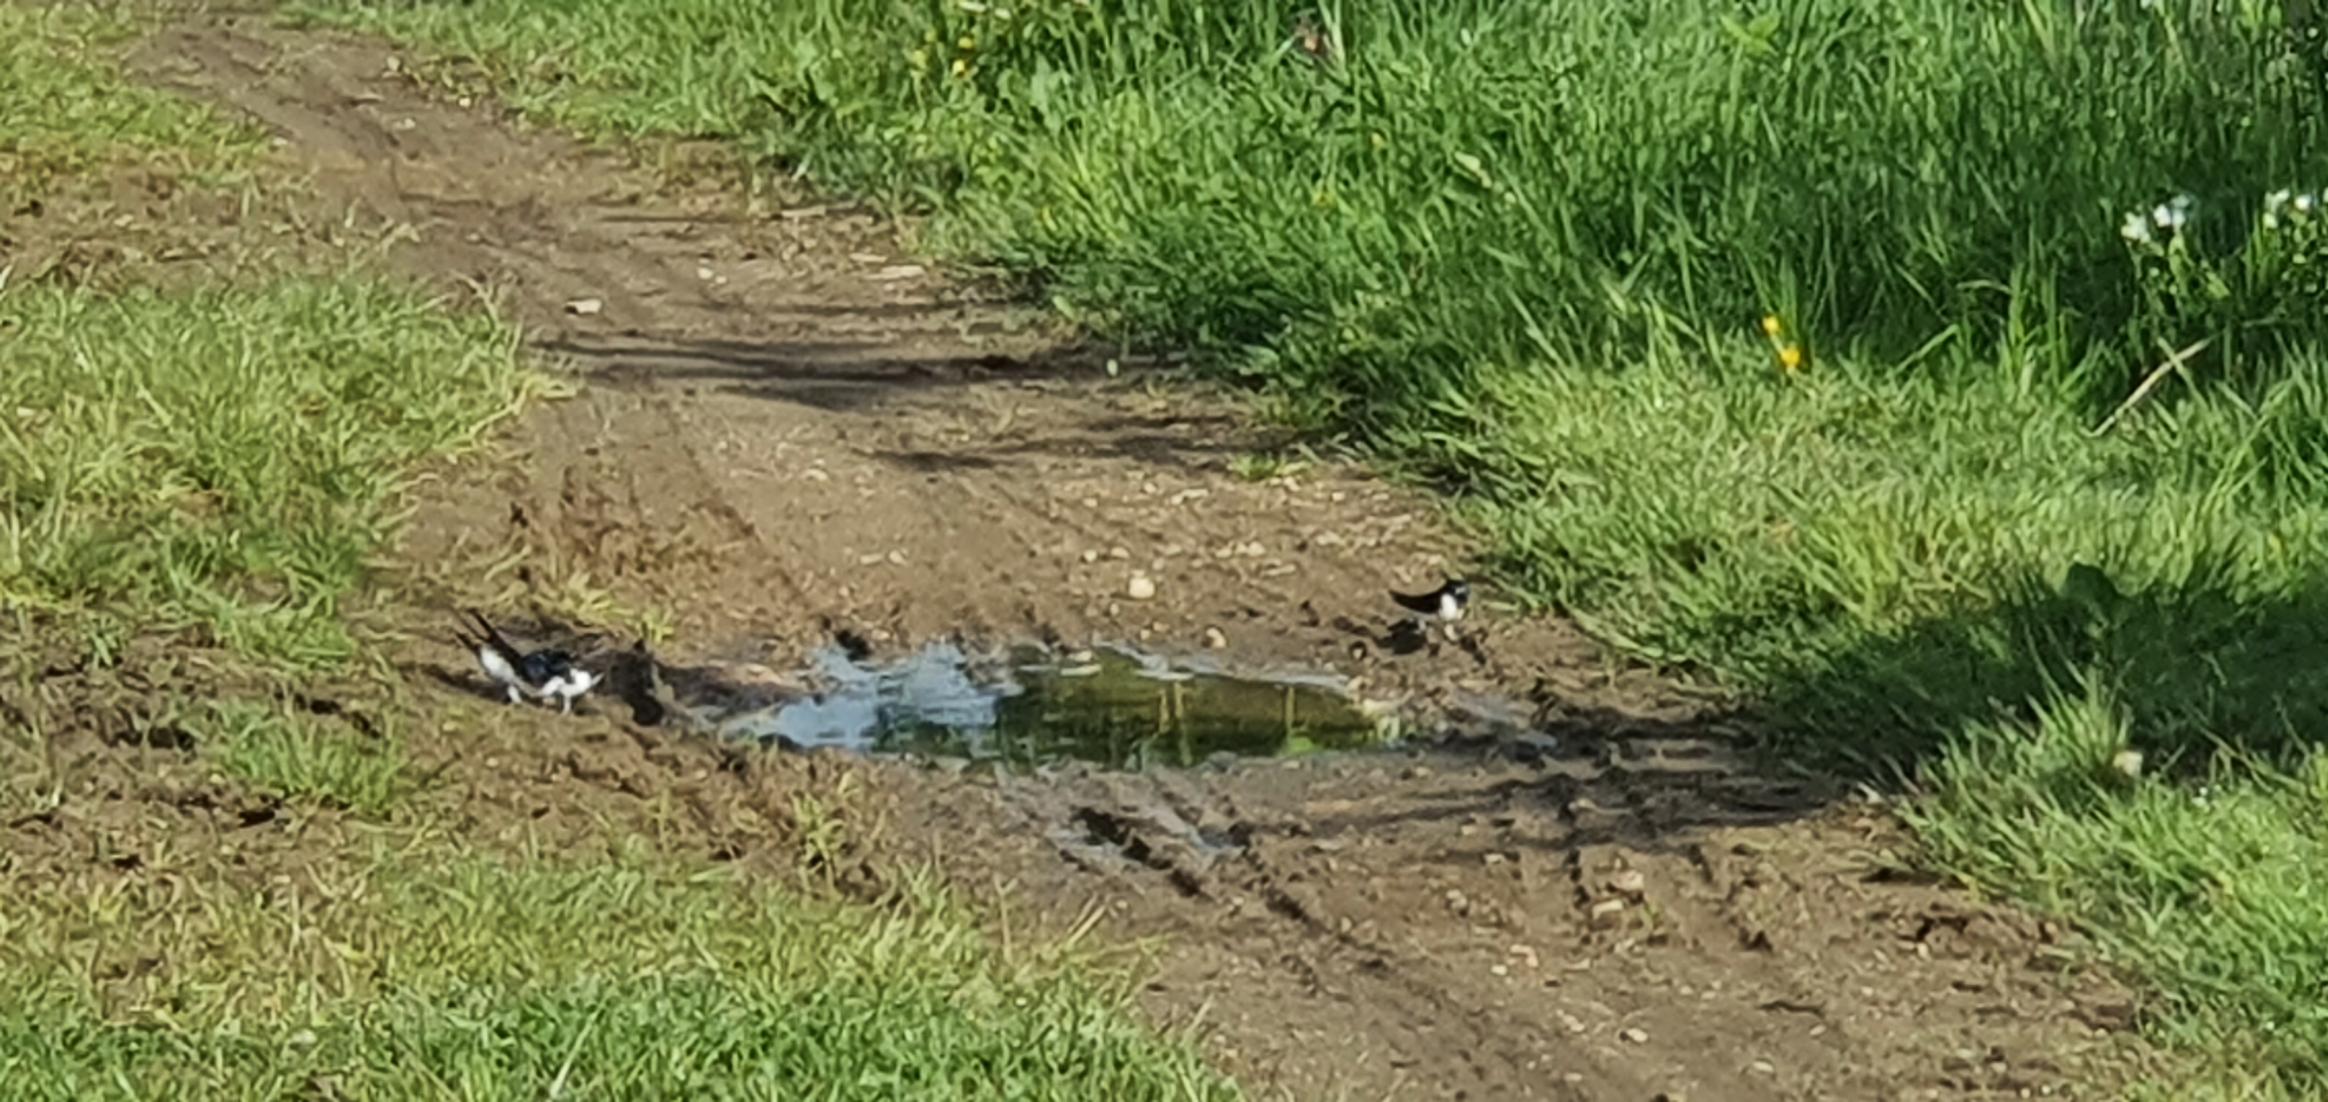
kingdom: Animalia
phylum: Chordata
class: Aves
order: Passeriformes
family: Hirundinidae
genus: Delichon
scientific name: Delichon urbicum
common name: Bysvale
